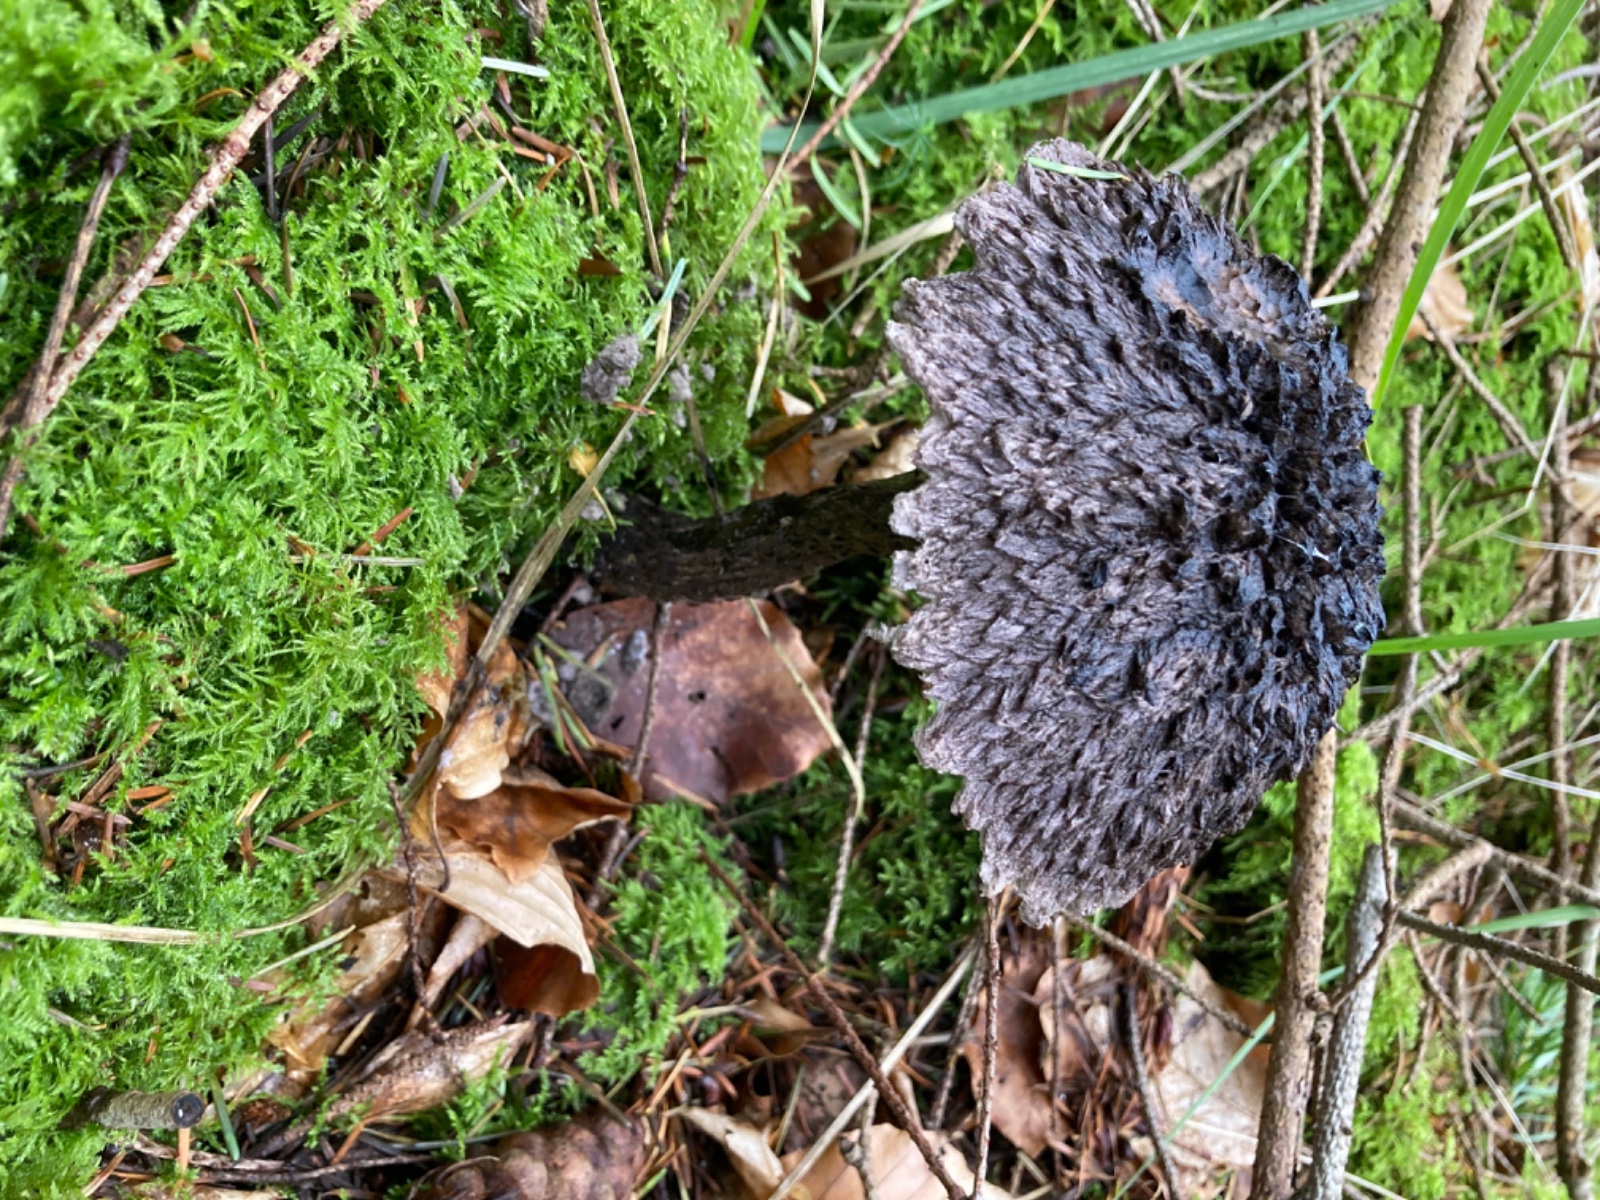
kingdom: Fungi
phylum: Basidiomycota
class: Agaricomycetes
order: Boletales
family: Boletaceae
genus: Strobilomyces
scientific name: Strobilomyces strobilaceus
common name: koglerørhat
